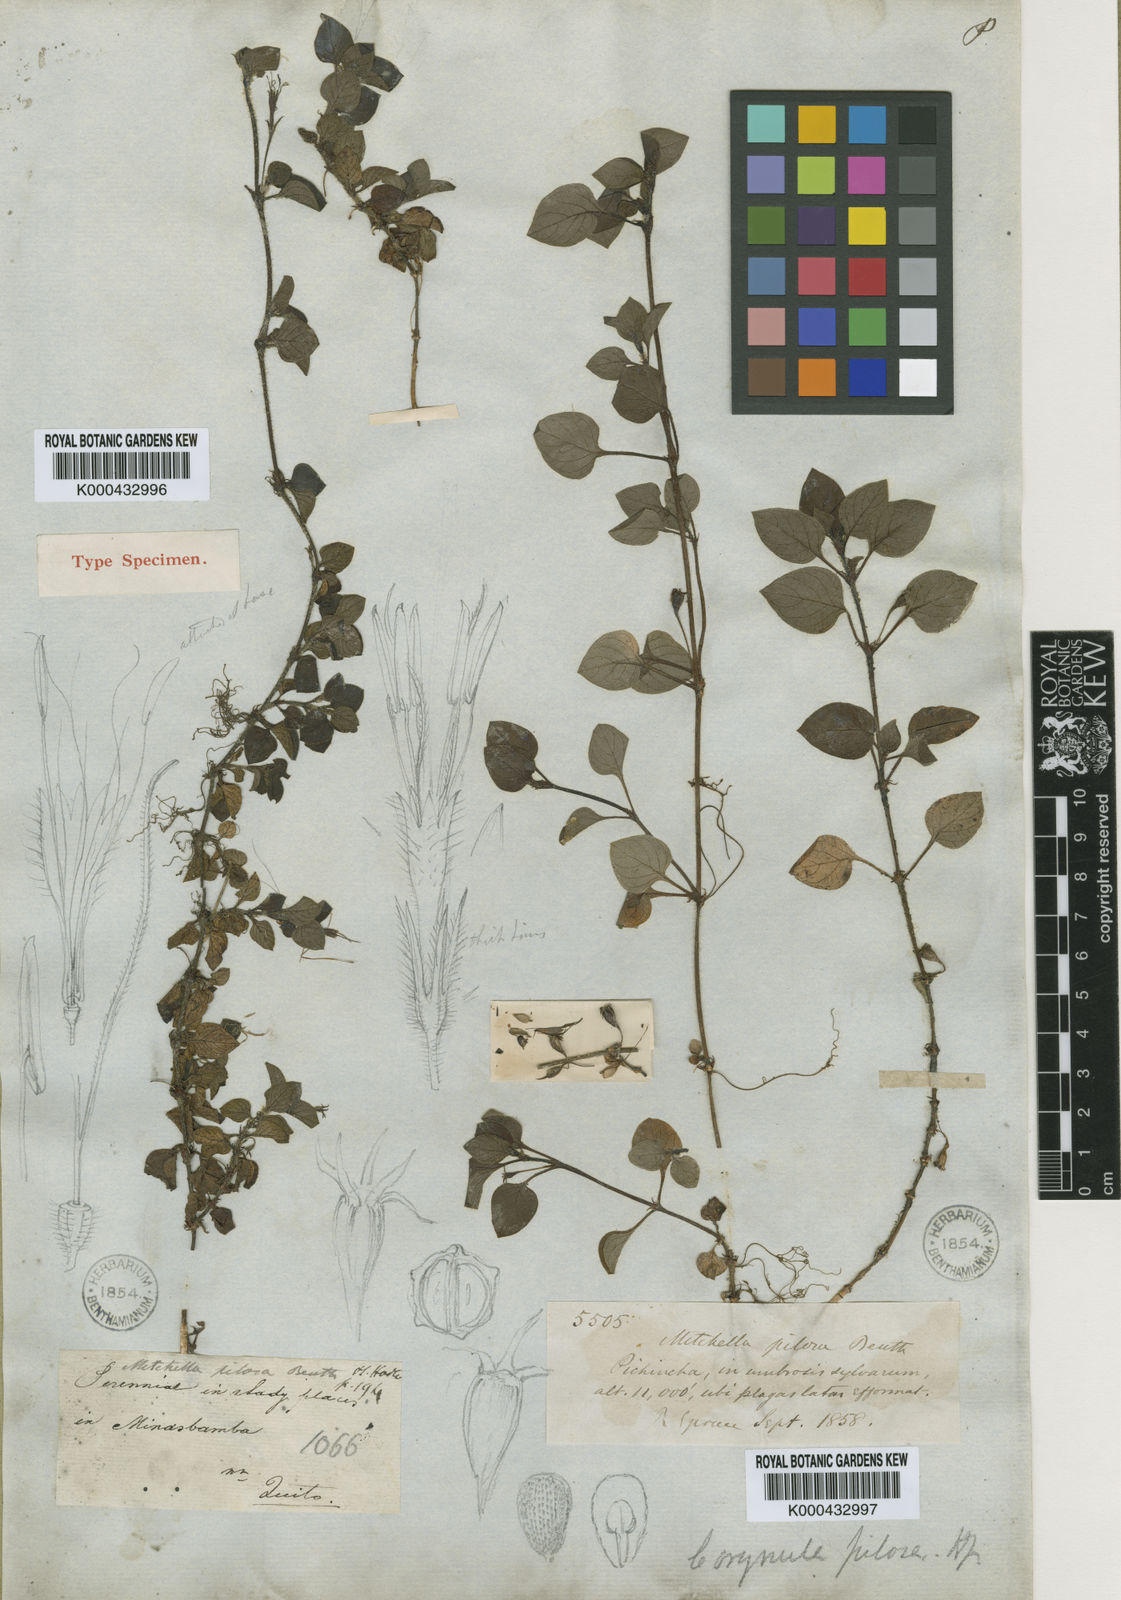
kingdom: Plantae
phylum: Tracheophyta
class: Magnoliopsida
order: Gentianales
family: Rubiaceae
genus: Leptostigma
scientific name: Leptostigma pilosum
